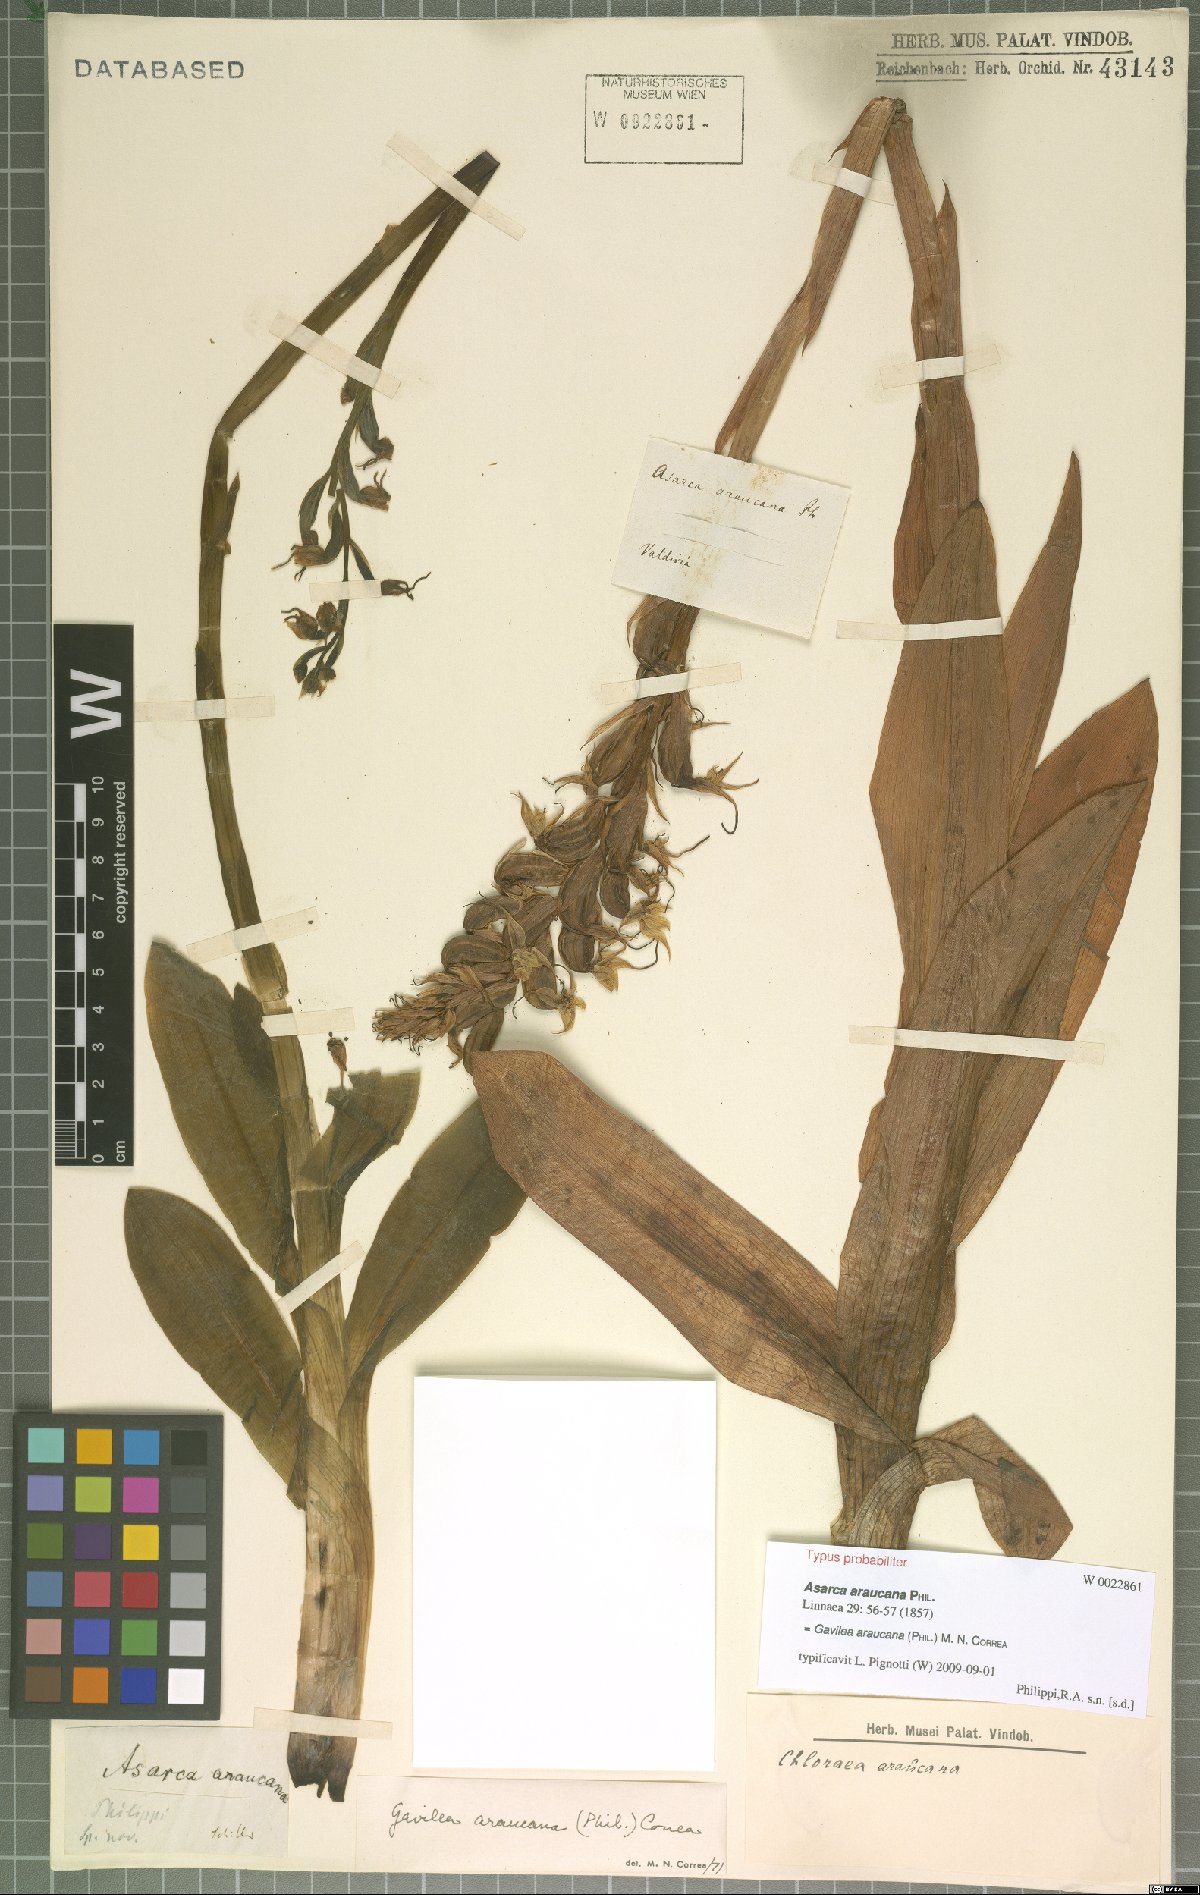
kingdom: Plantae
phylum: Tracheophyta
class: Liliopsida
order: Asparagales
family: Orchidaceae
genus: Gavilea
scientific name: Gavilea araucana
